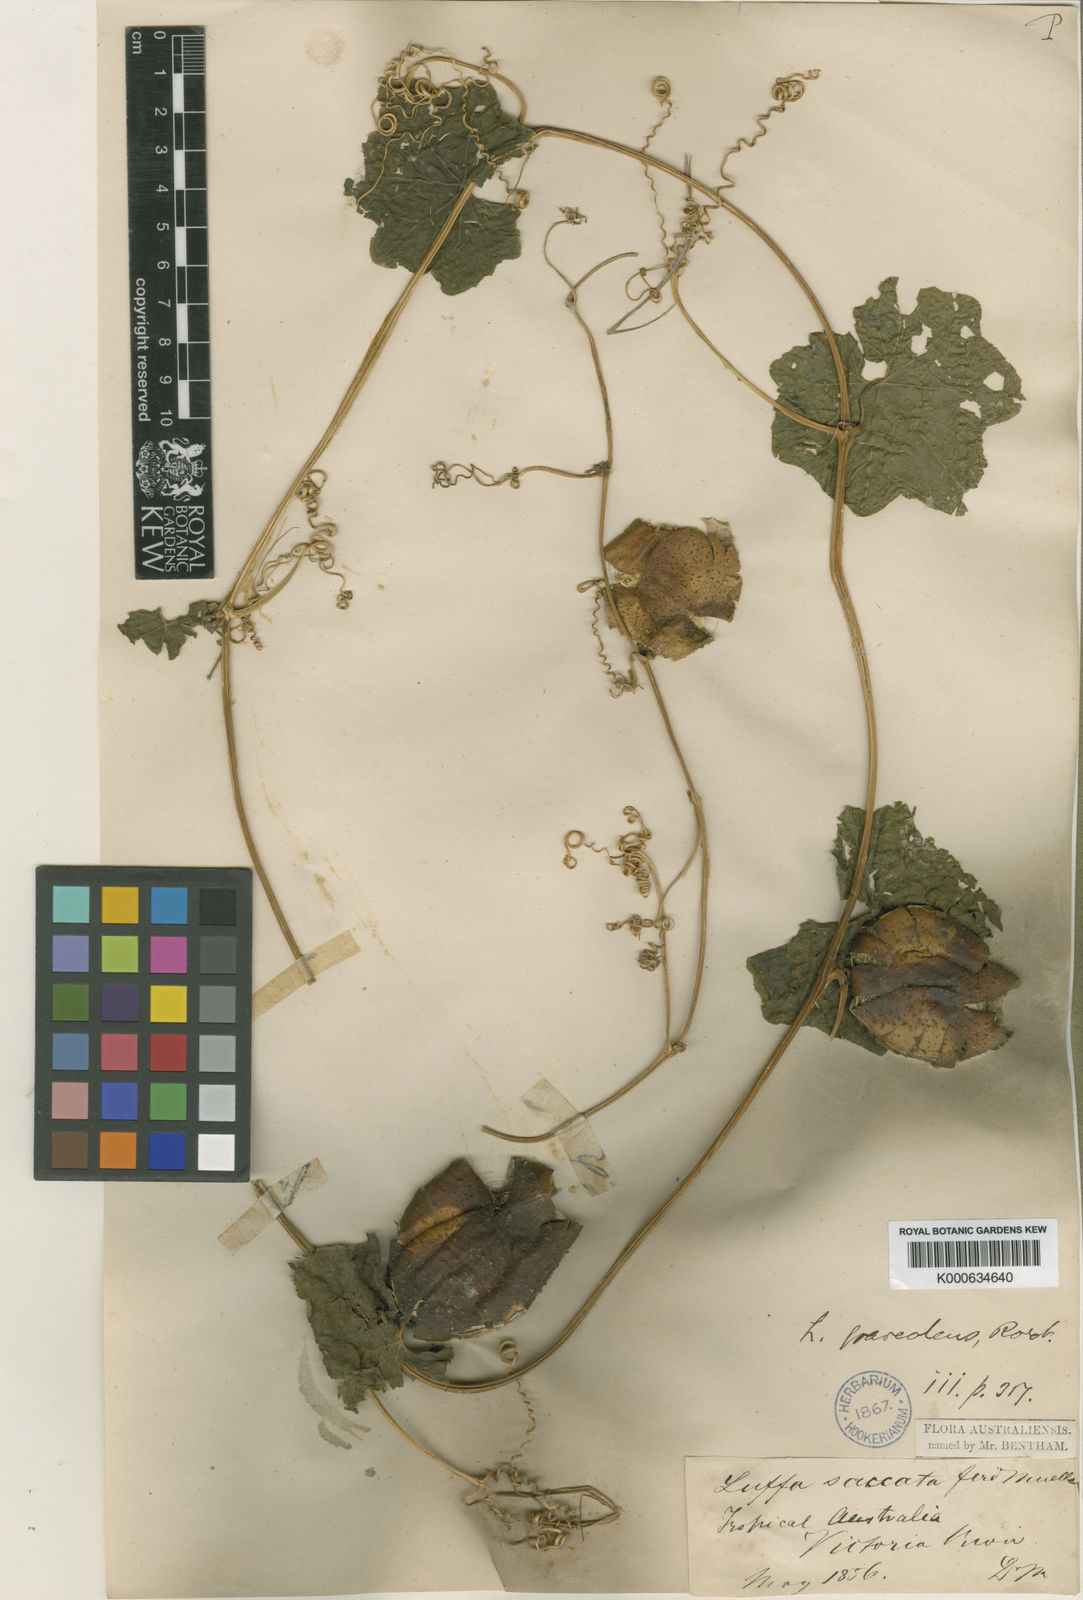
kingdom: Plantae
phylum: Tracheophyta
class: Magnoliopsida
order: Cucurbitales
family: Cucurbitaceae
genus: Luffa
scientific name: Luffa graveolens
